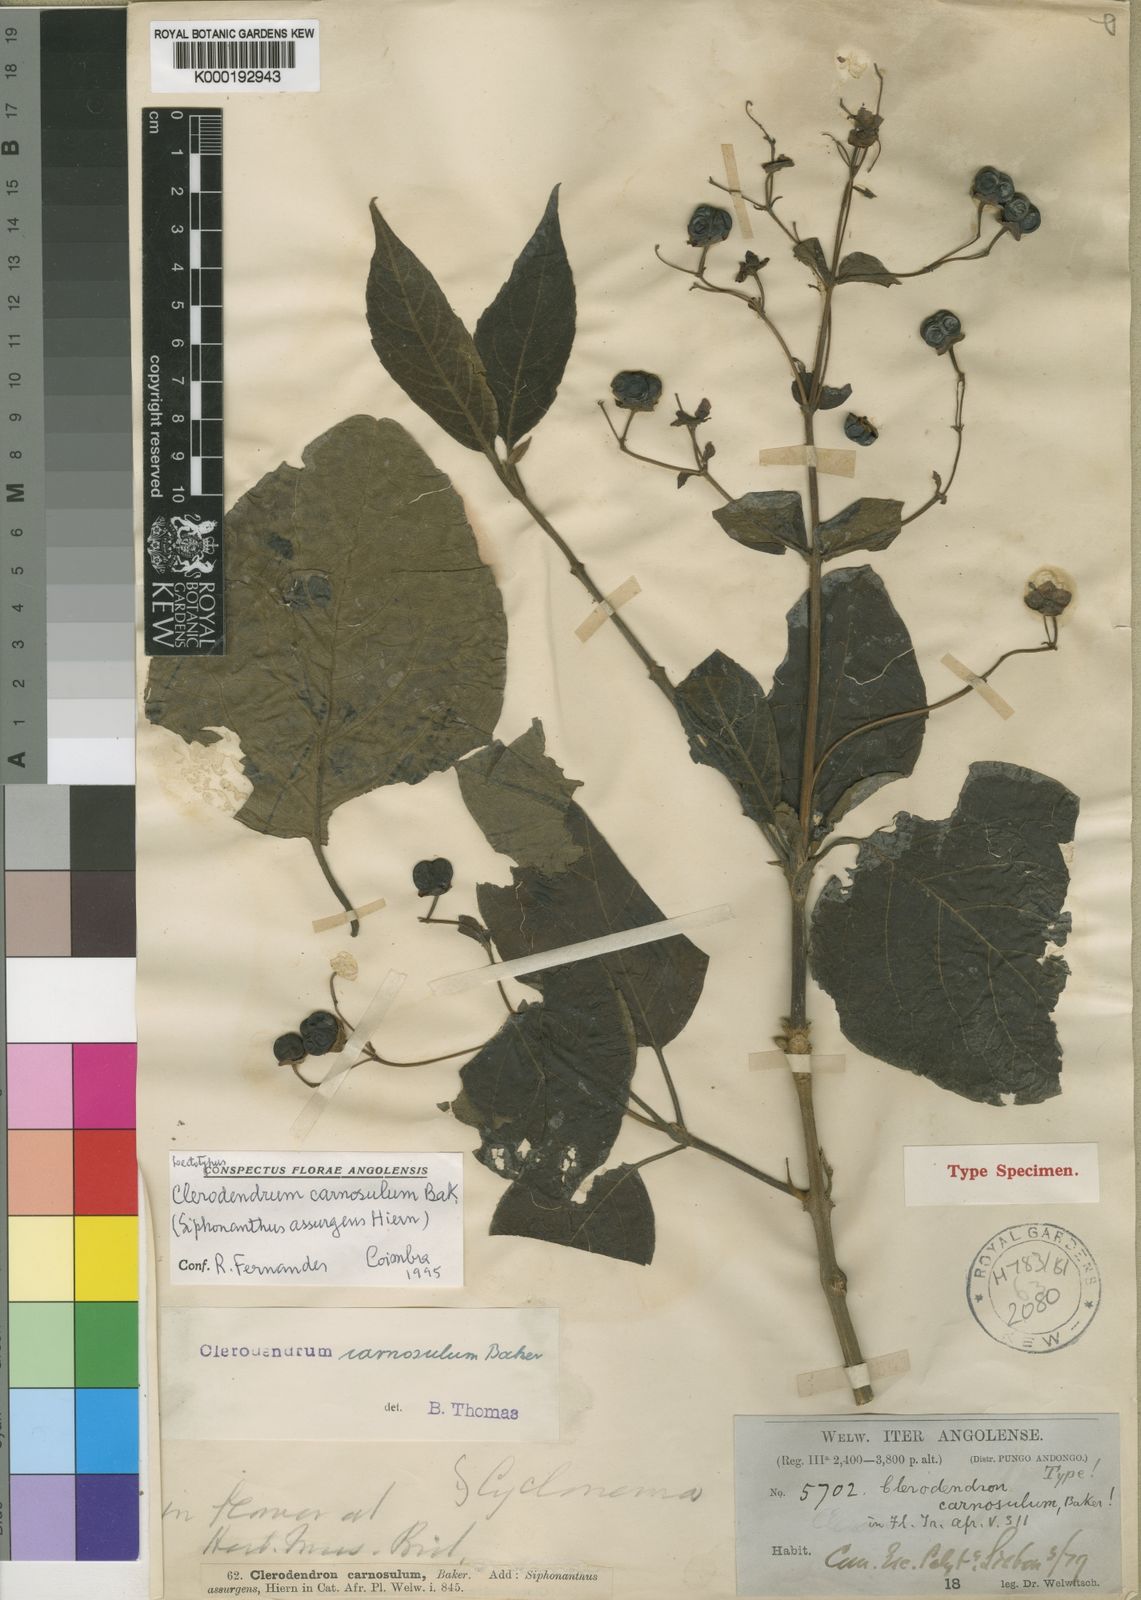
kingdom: Plantae
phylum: Tracheophyta
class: Magnoliopsida
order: Lamiales
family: Lamiaceae
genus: Clerodendrum
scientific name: Clerodendrum carnosulum
